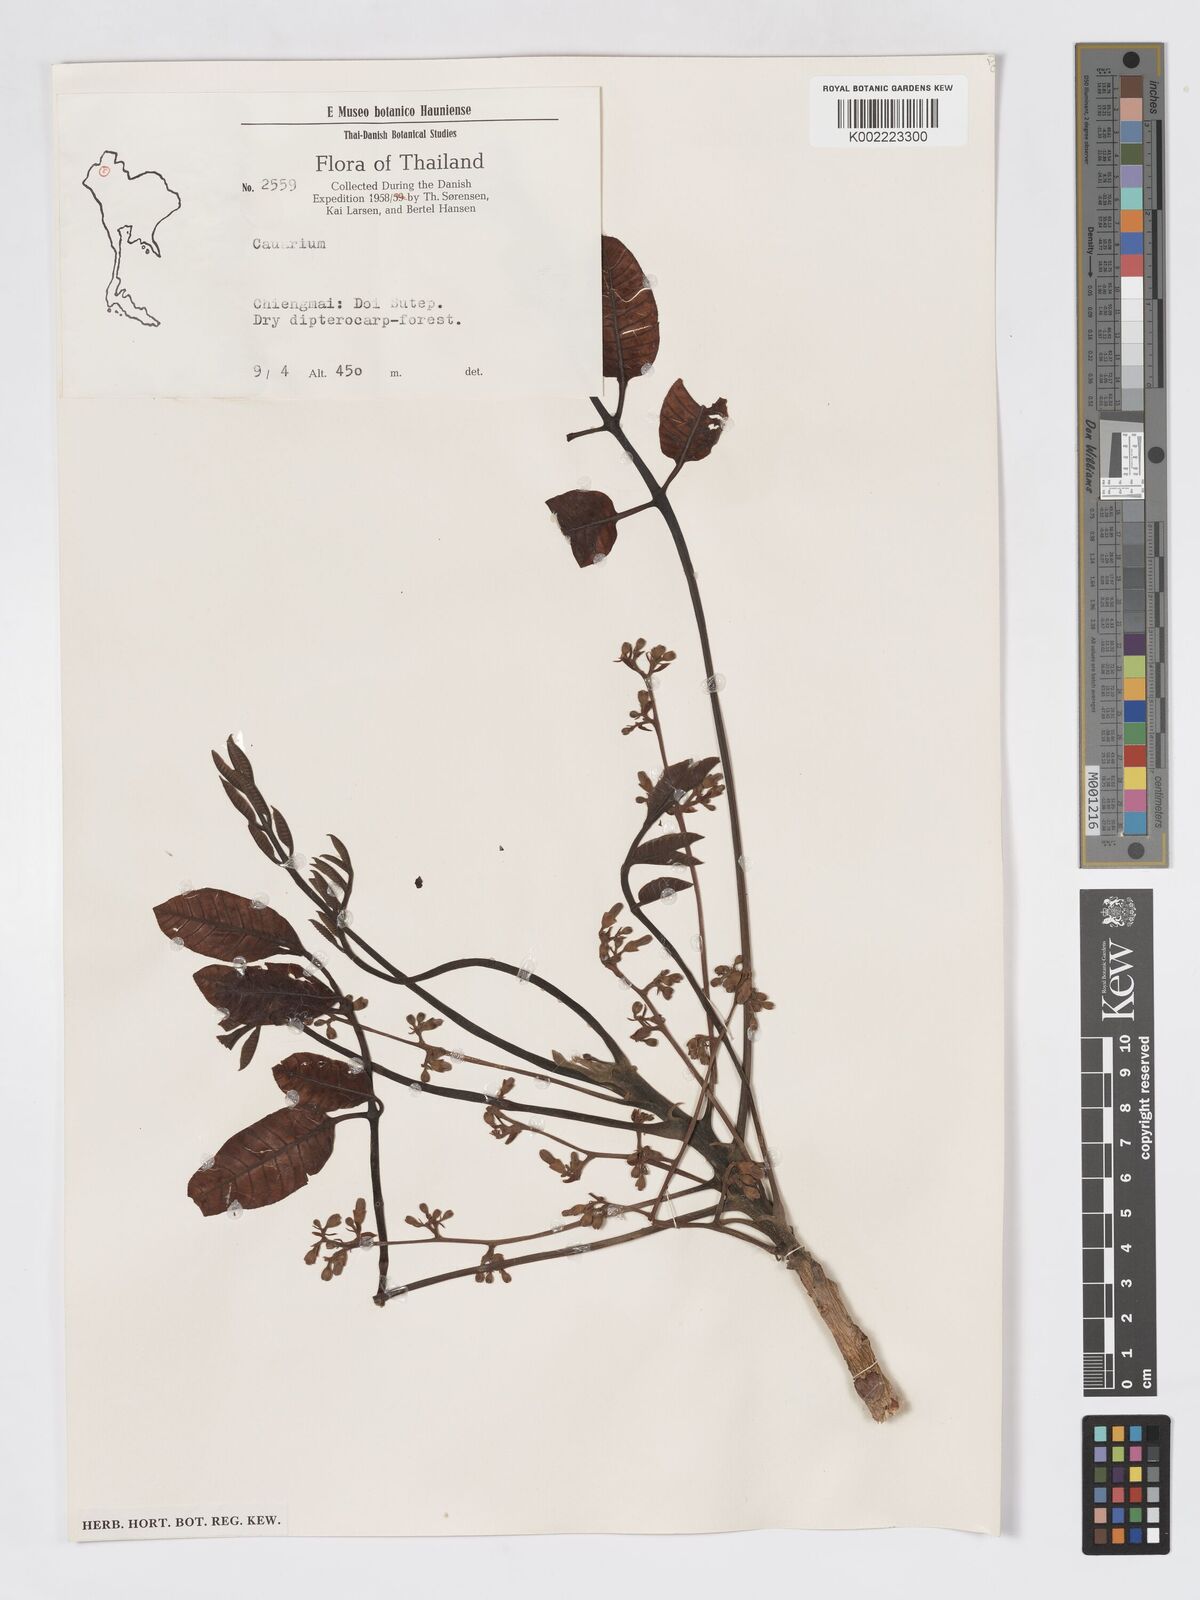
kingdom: Plantae
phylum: Tracheophyta
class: Magnoliopsida
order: Sapindales
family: Burseraceae
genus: Canarium
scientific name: Canarium subulatum
